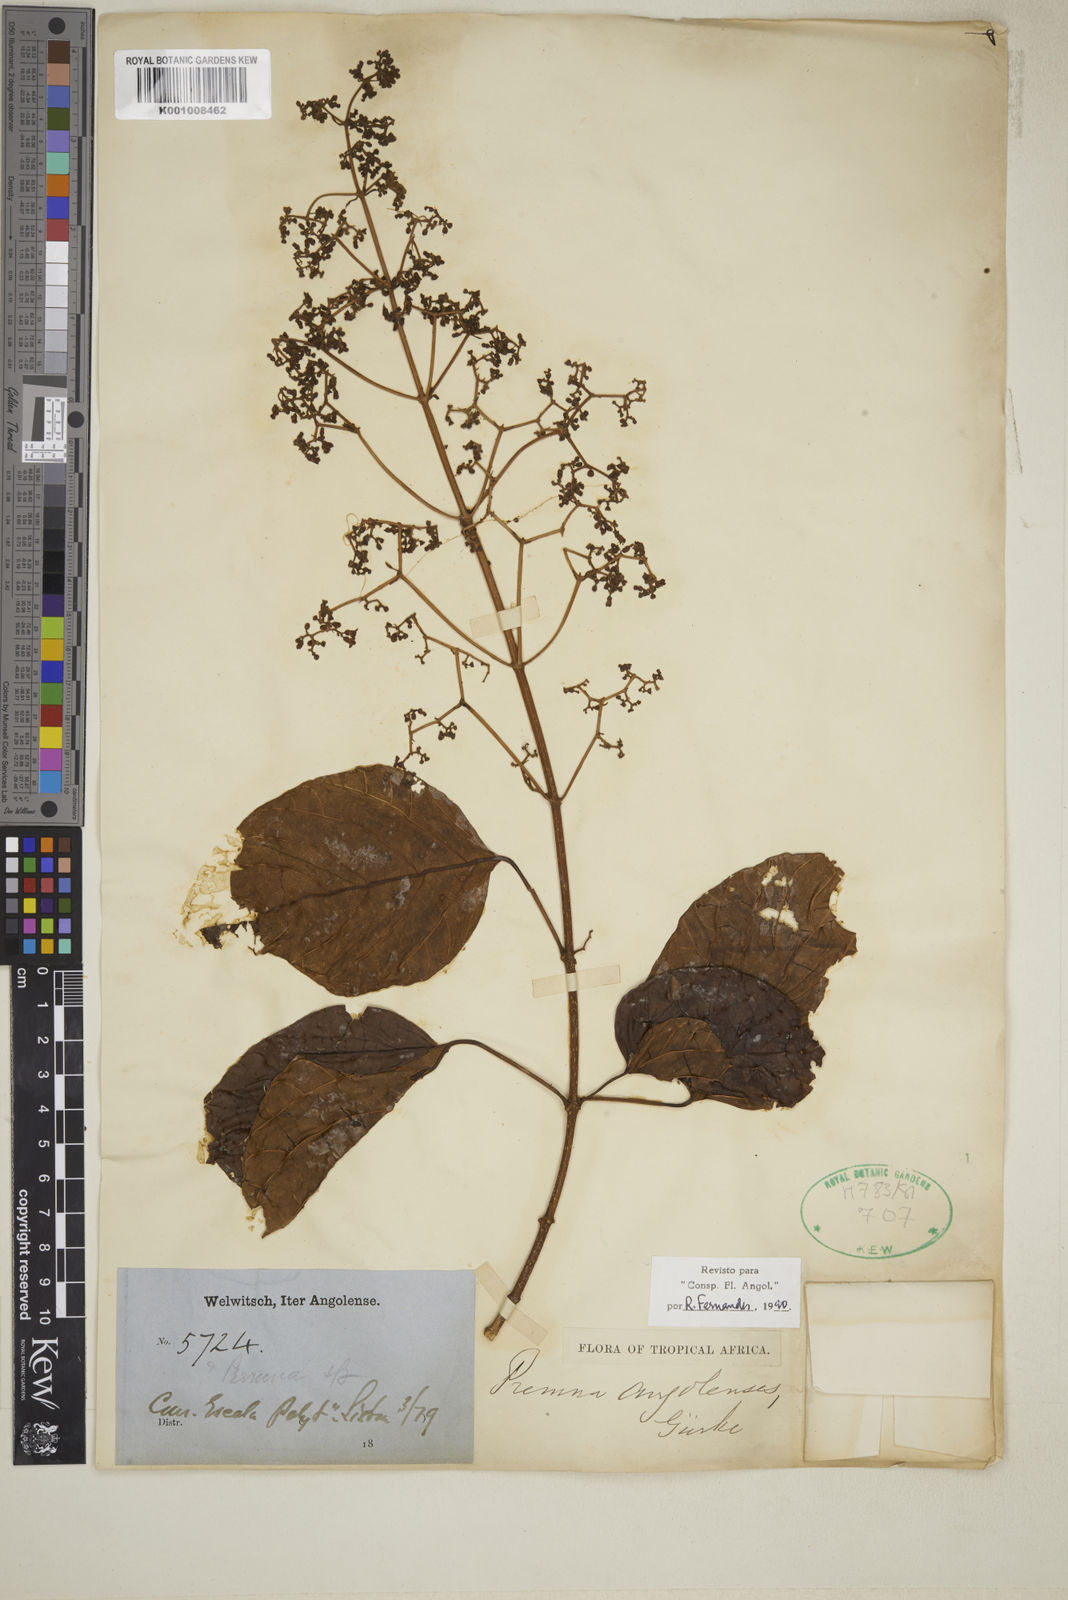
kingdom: Plantae
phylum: Tracheophyta
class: Magnoliopsida
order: Lamiales
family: Lamiaceae
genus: Premna
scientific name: Premna
